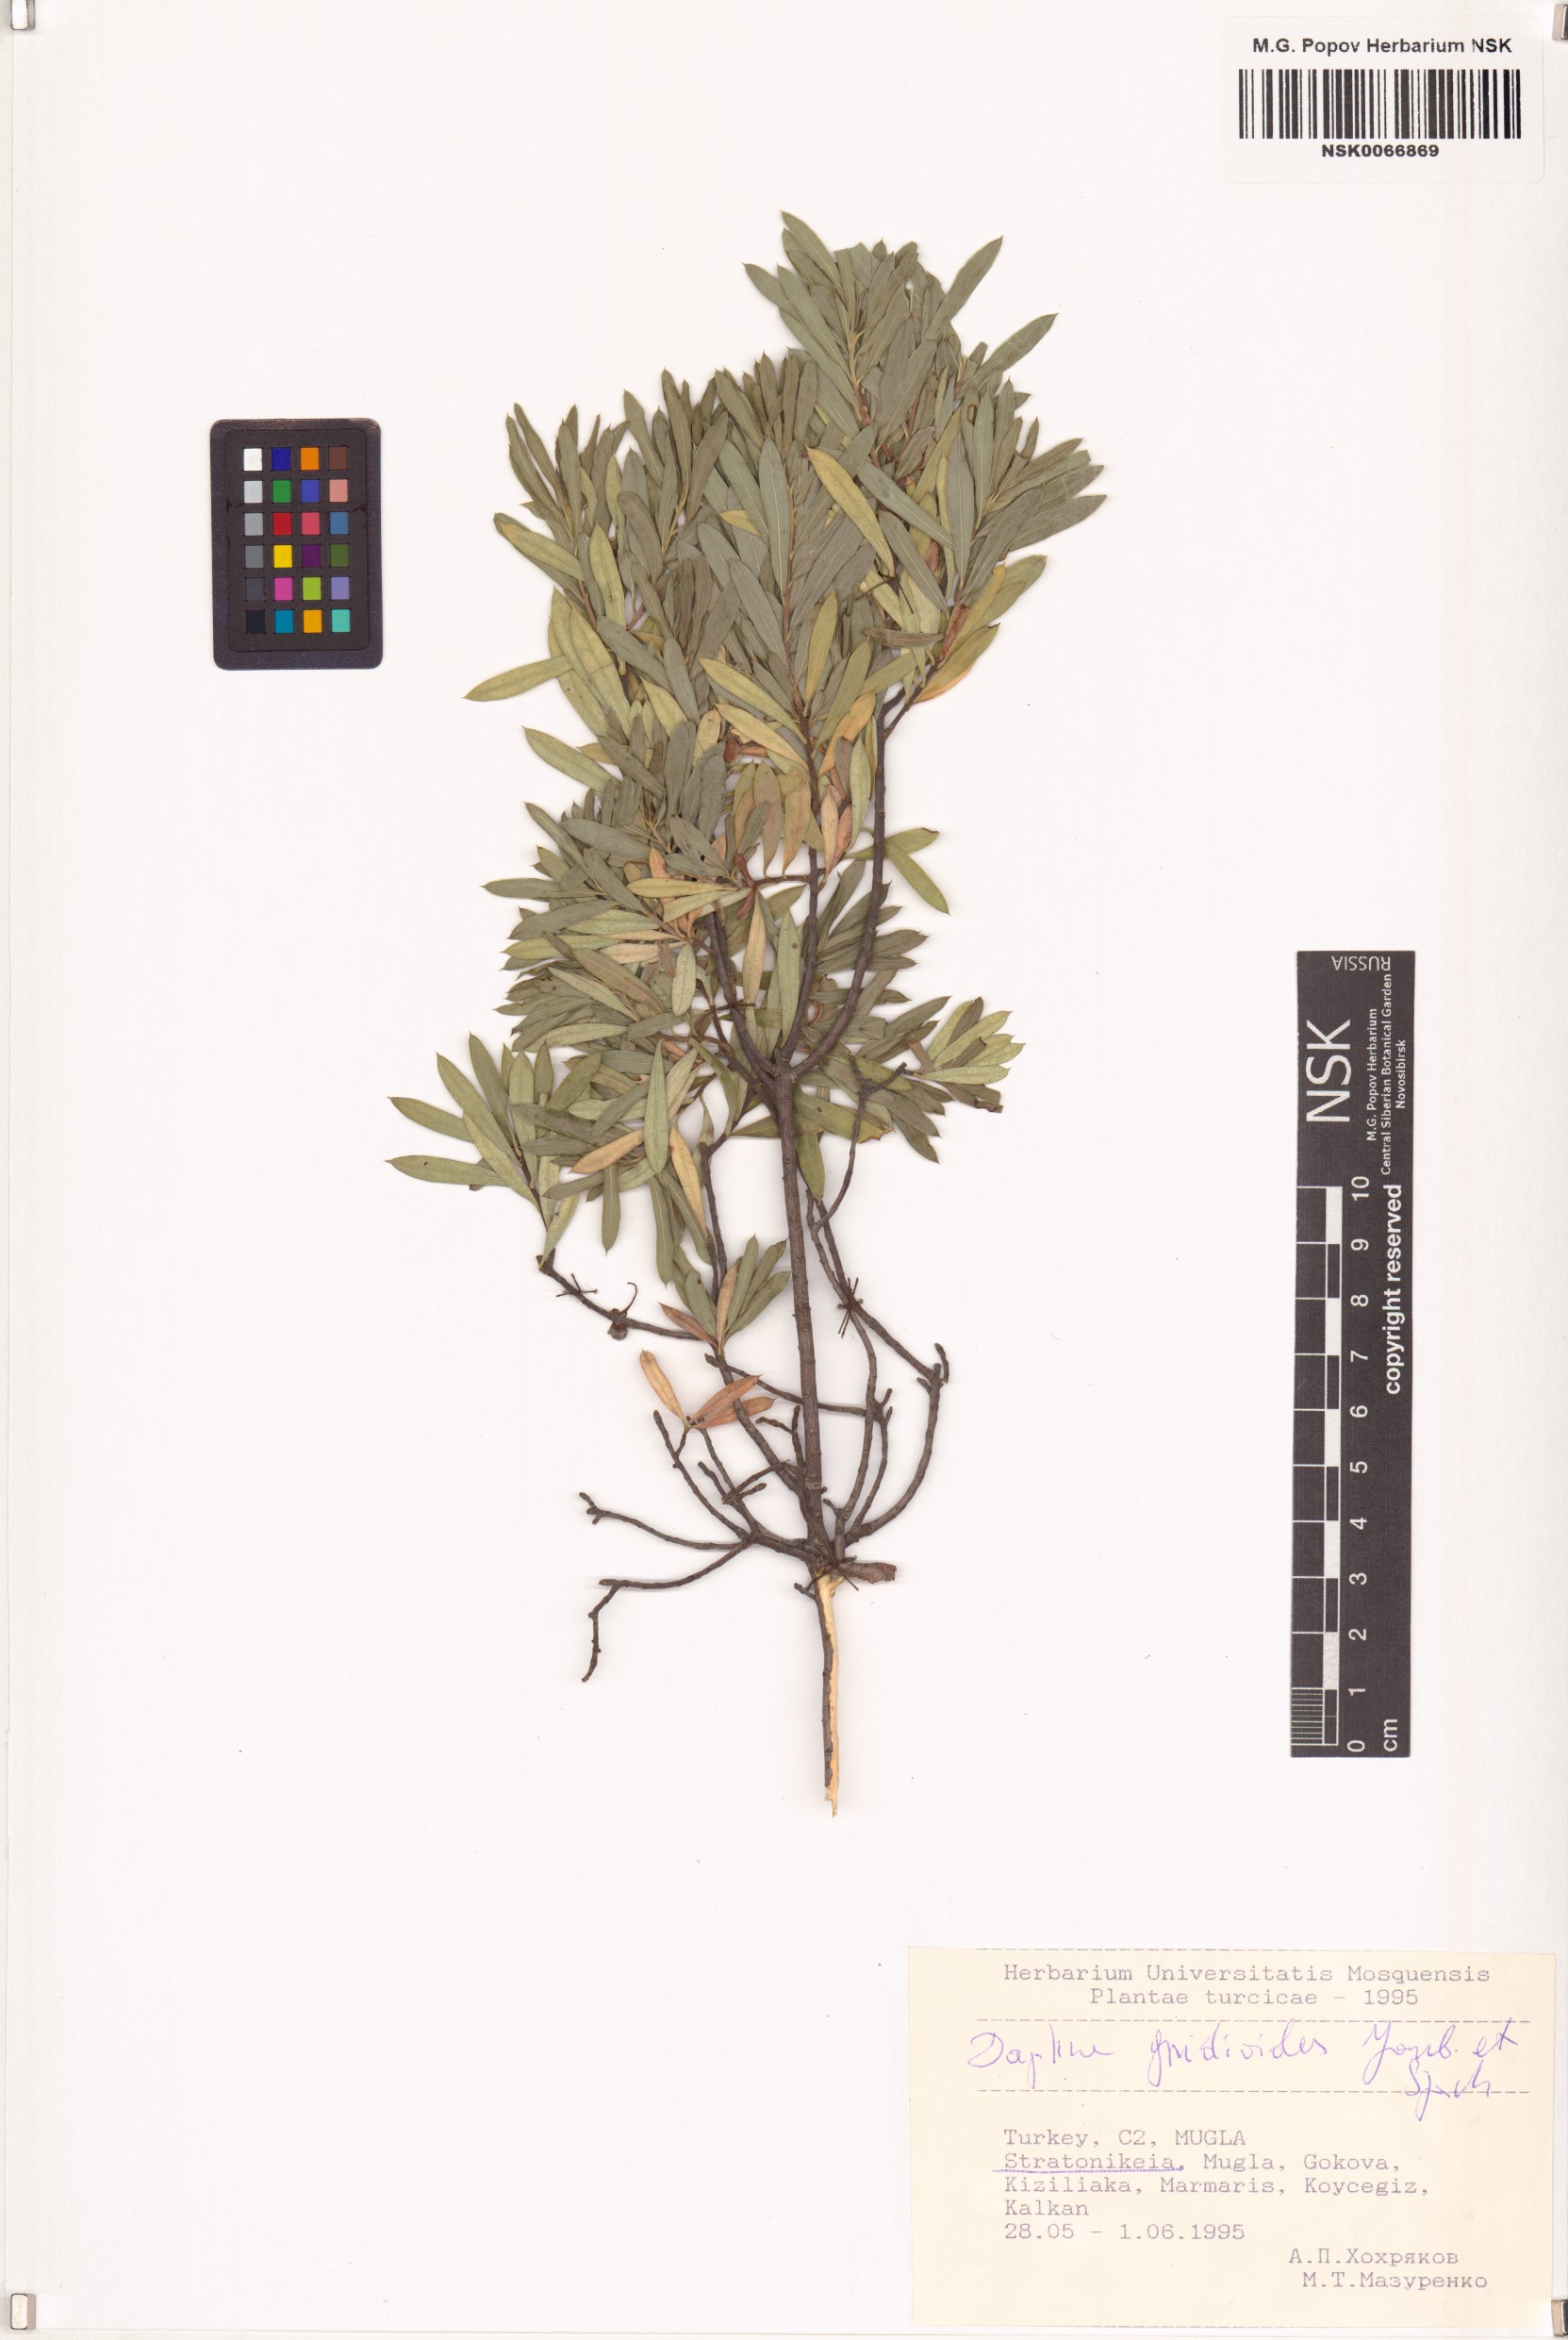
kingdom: Plantae
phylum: Tracheophyta
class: Magnoliopsida
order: Malvales
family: Thymelaeaceae
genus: Daphne
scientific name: Daphne gnidioides
